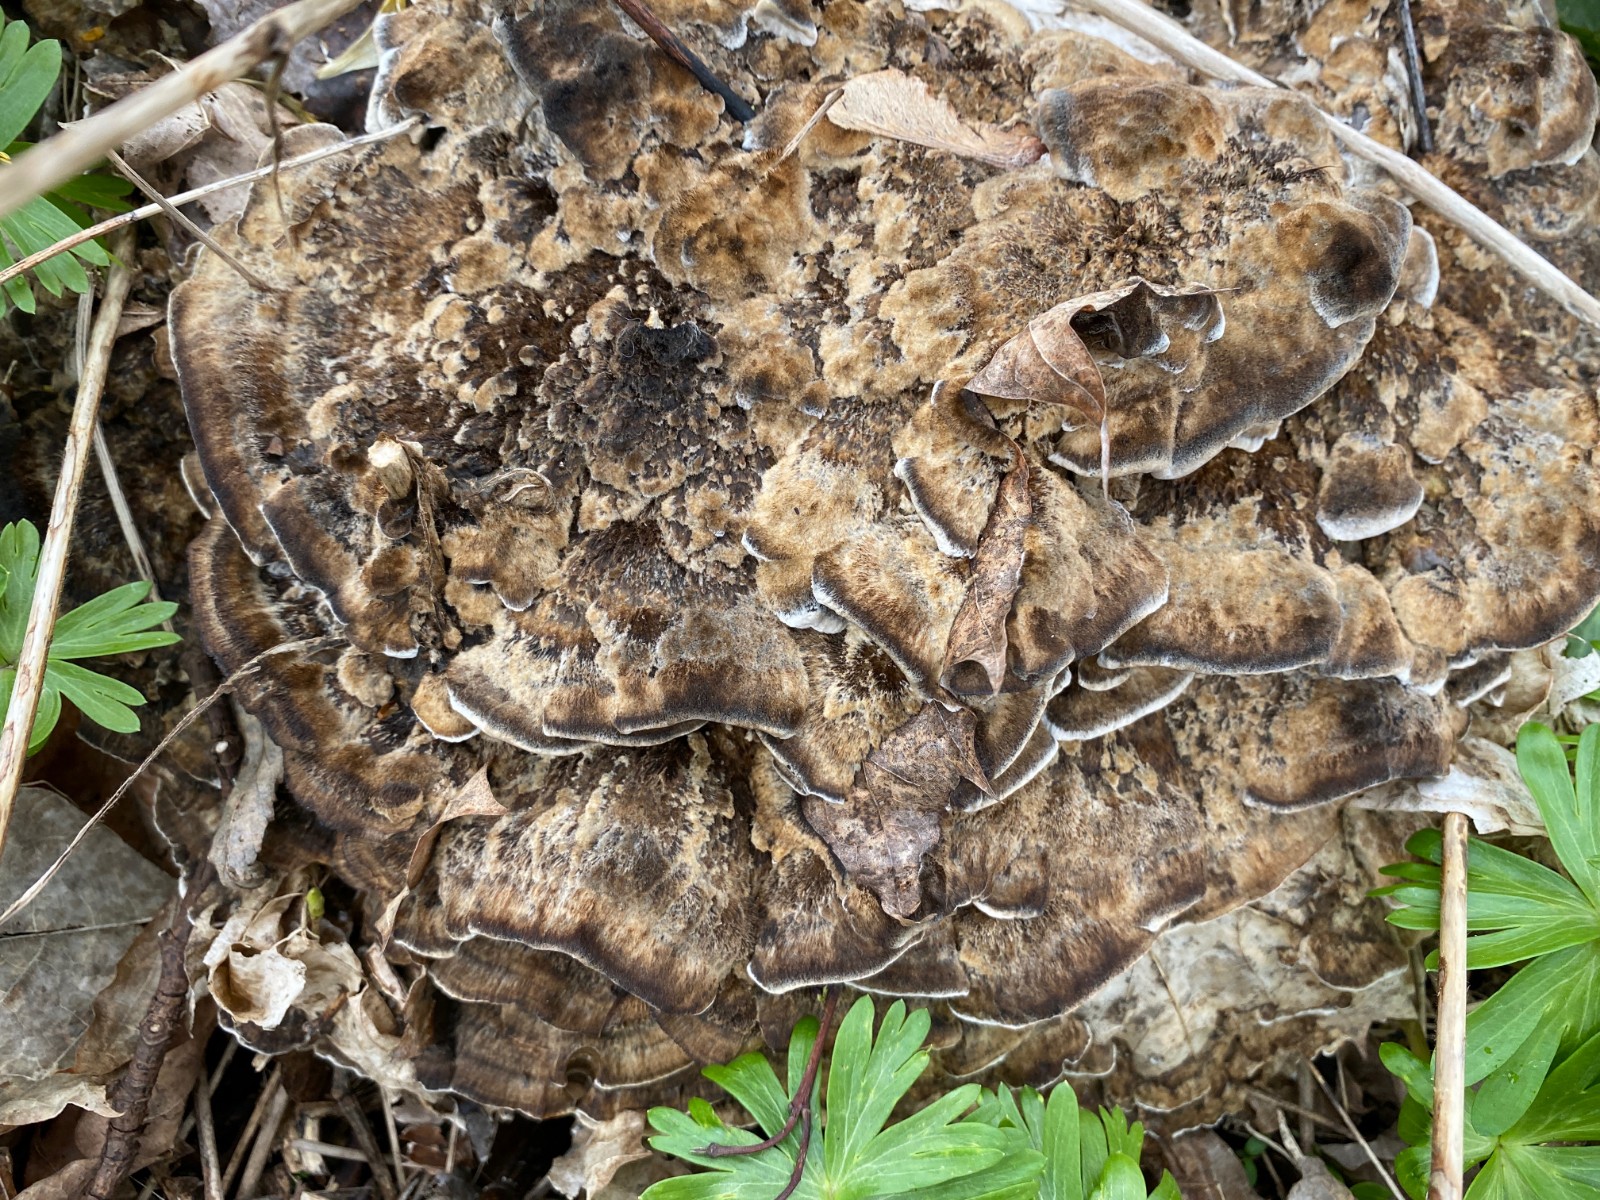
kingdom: Fungi
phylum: Basidiomycota
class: Agaricomycetes
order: Polyporales
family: Phanerochaetaceae
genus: Bjerkandera
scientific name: Bjerkandera adusta
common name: sveden sodporesvamp
